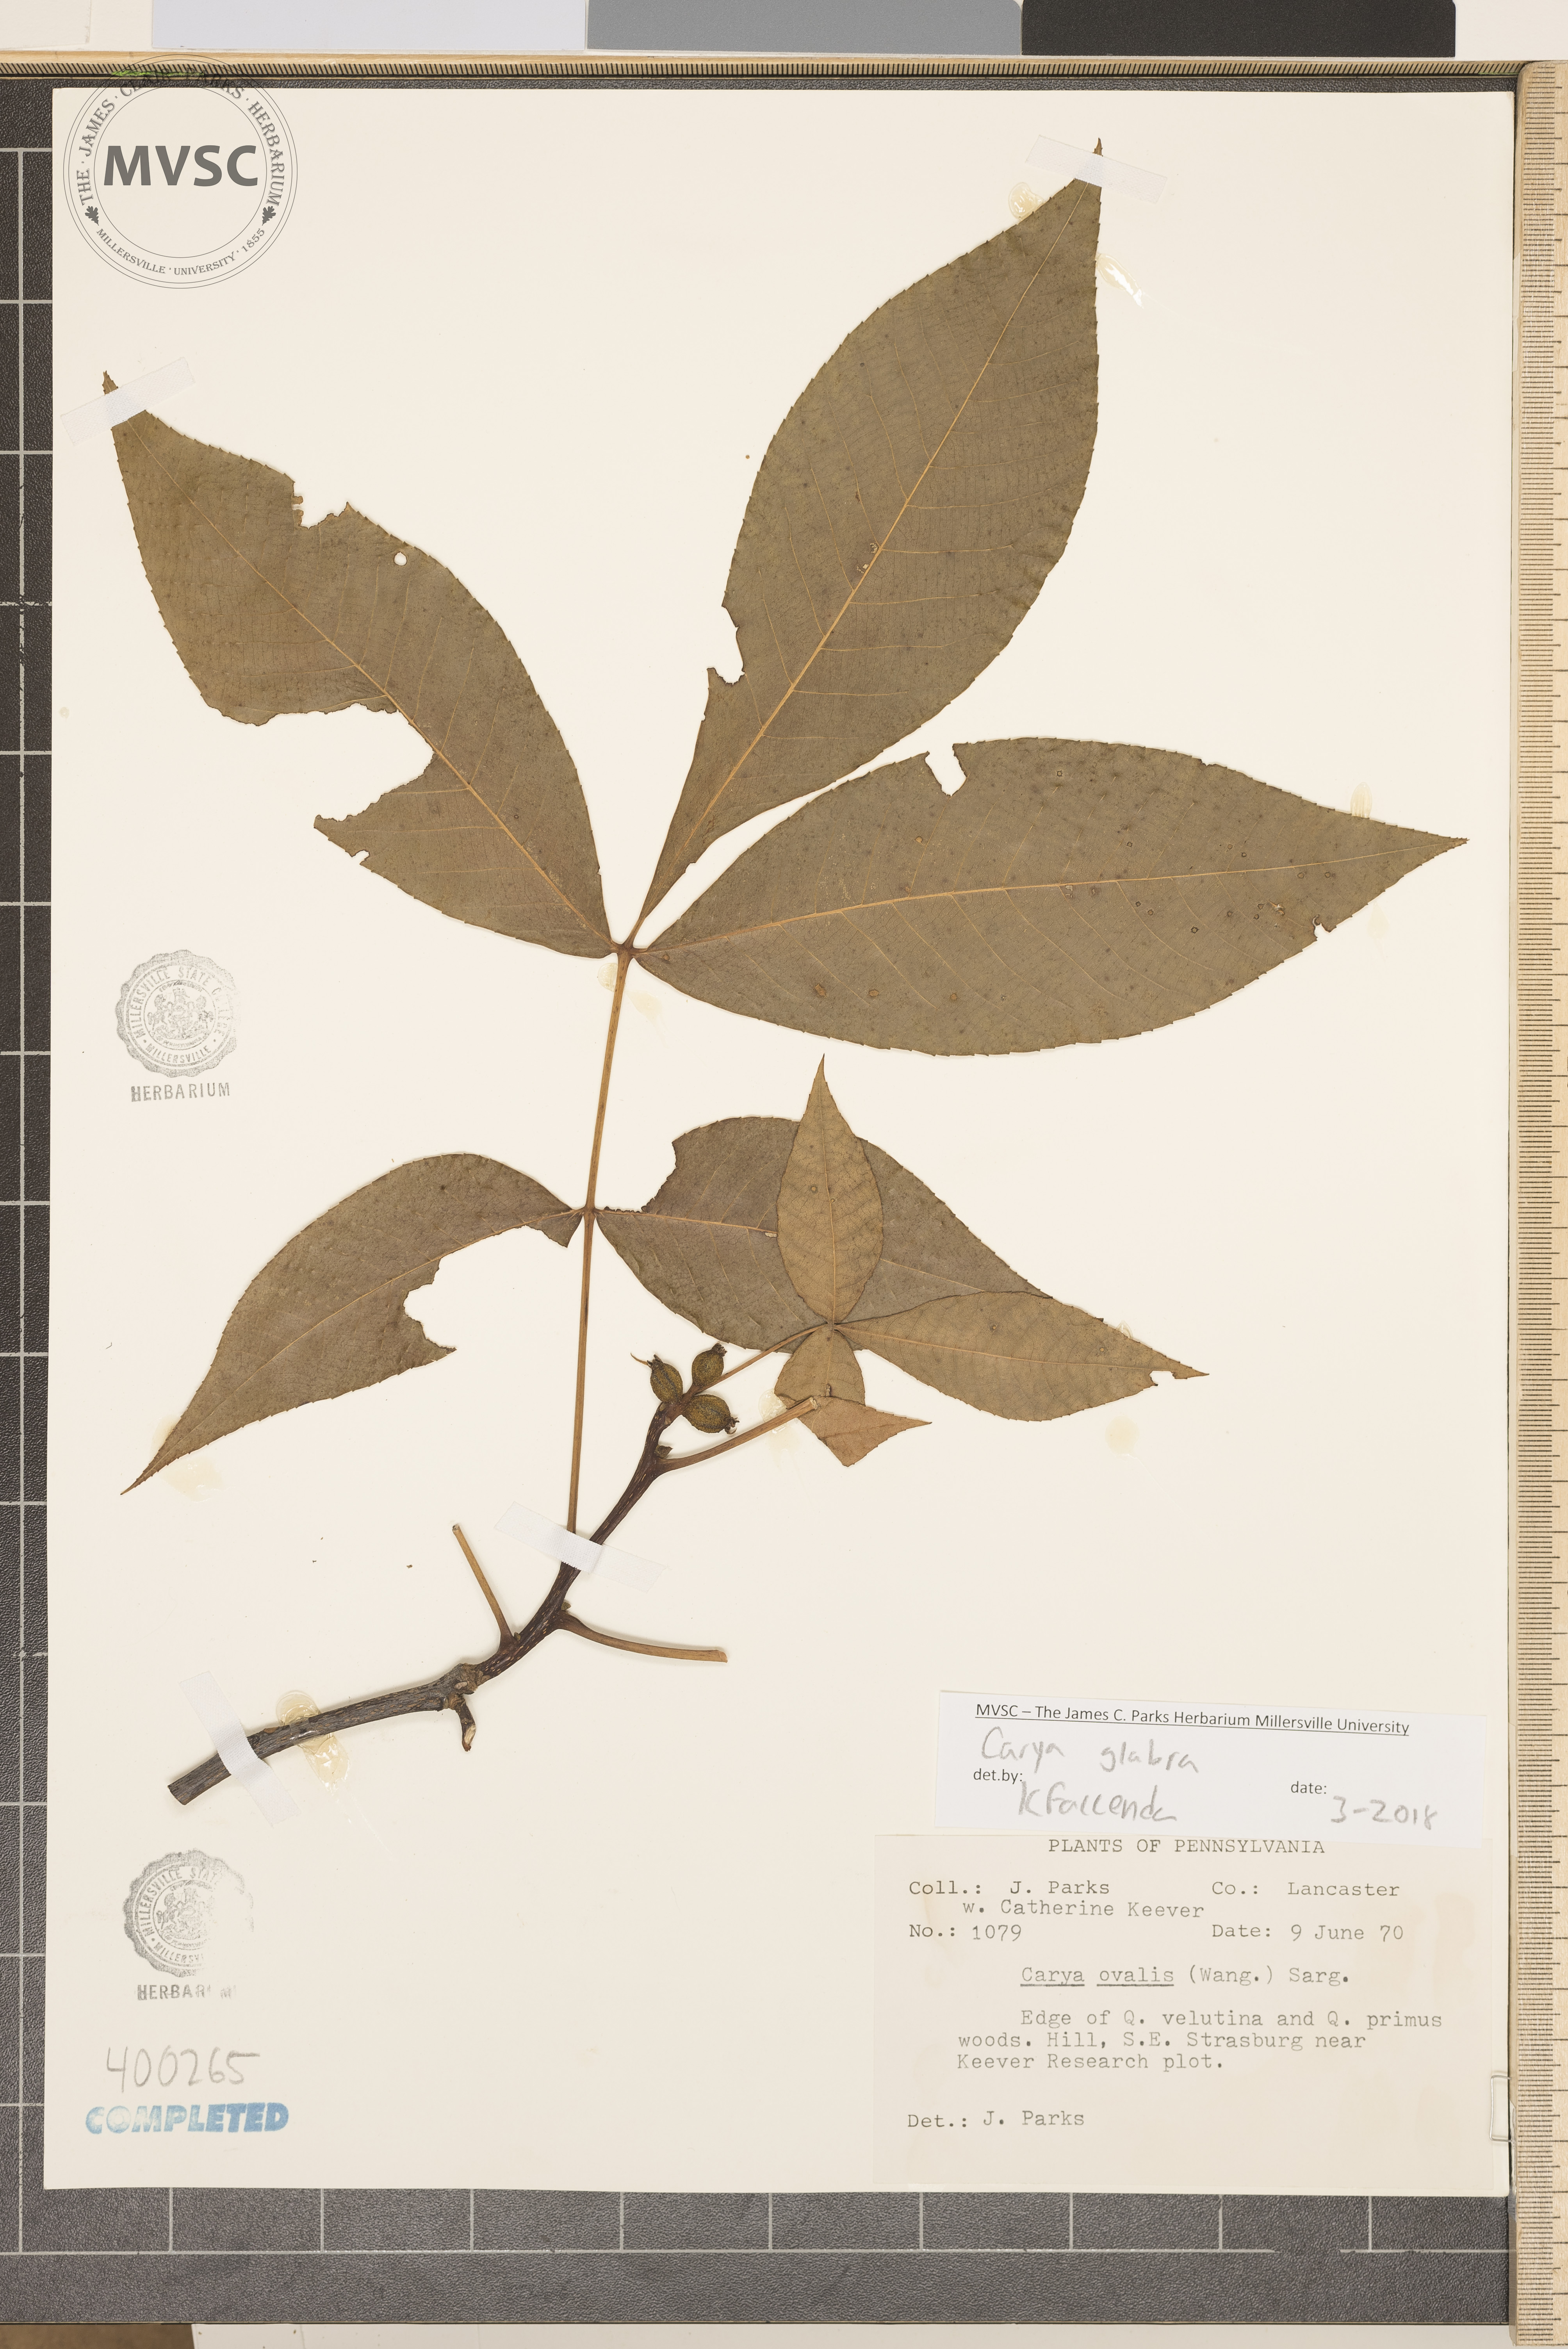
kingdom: Plantae
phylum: Tracheophyta
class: Magnoliopsida
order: Fagales
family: Juglandaceae
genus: Carya
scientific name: Carya glabra
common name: red hickory
